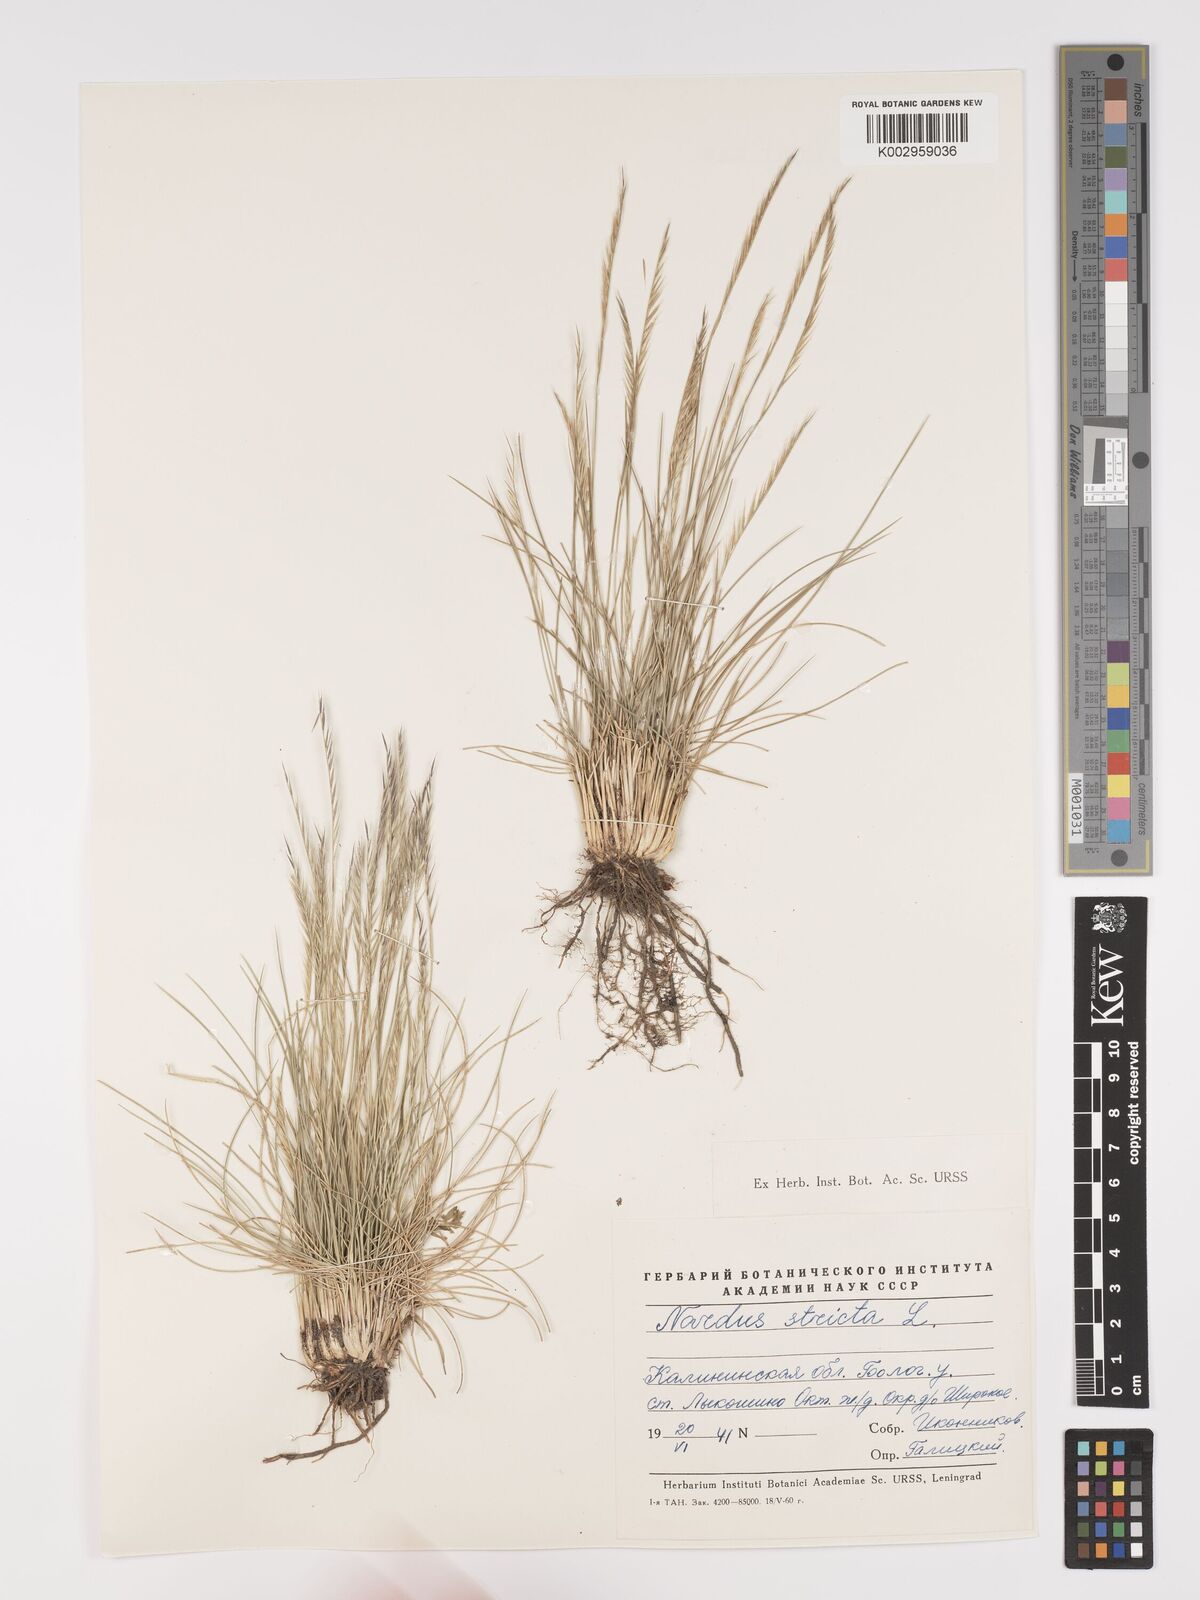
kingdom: Plantae
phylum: Tracheophyta
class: Liliopsida
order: Poales
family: Poaceae
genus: Nardus
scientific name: Nardus stricta
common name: Mat-grass
